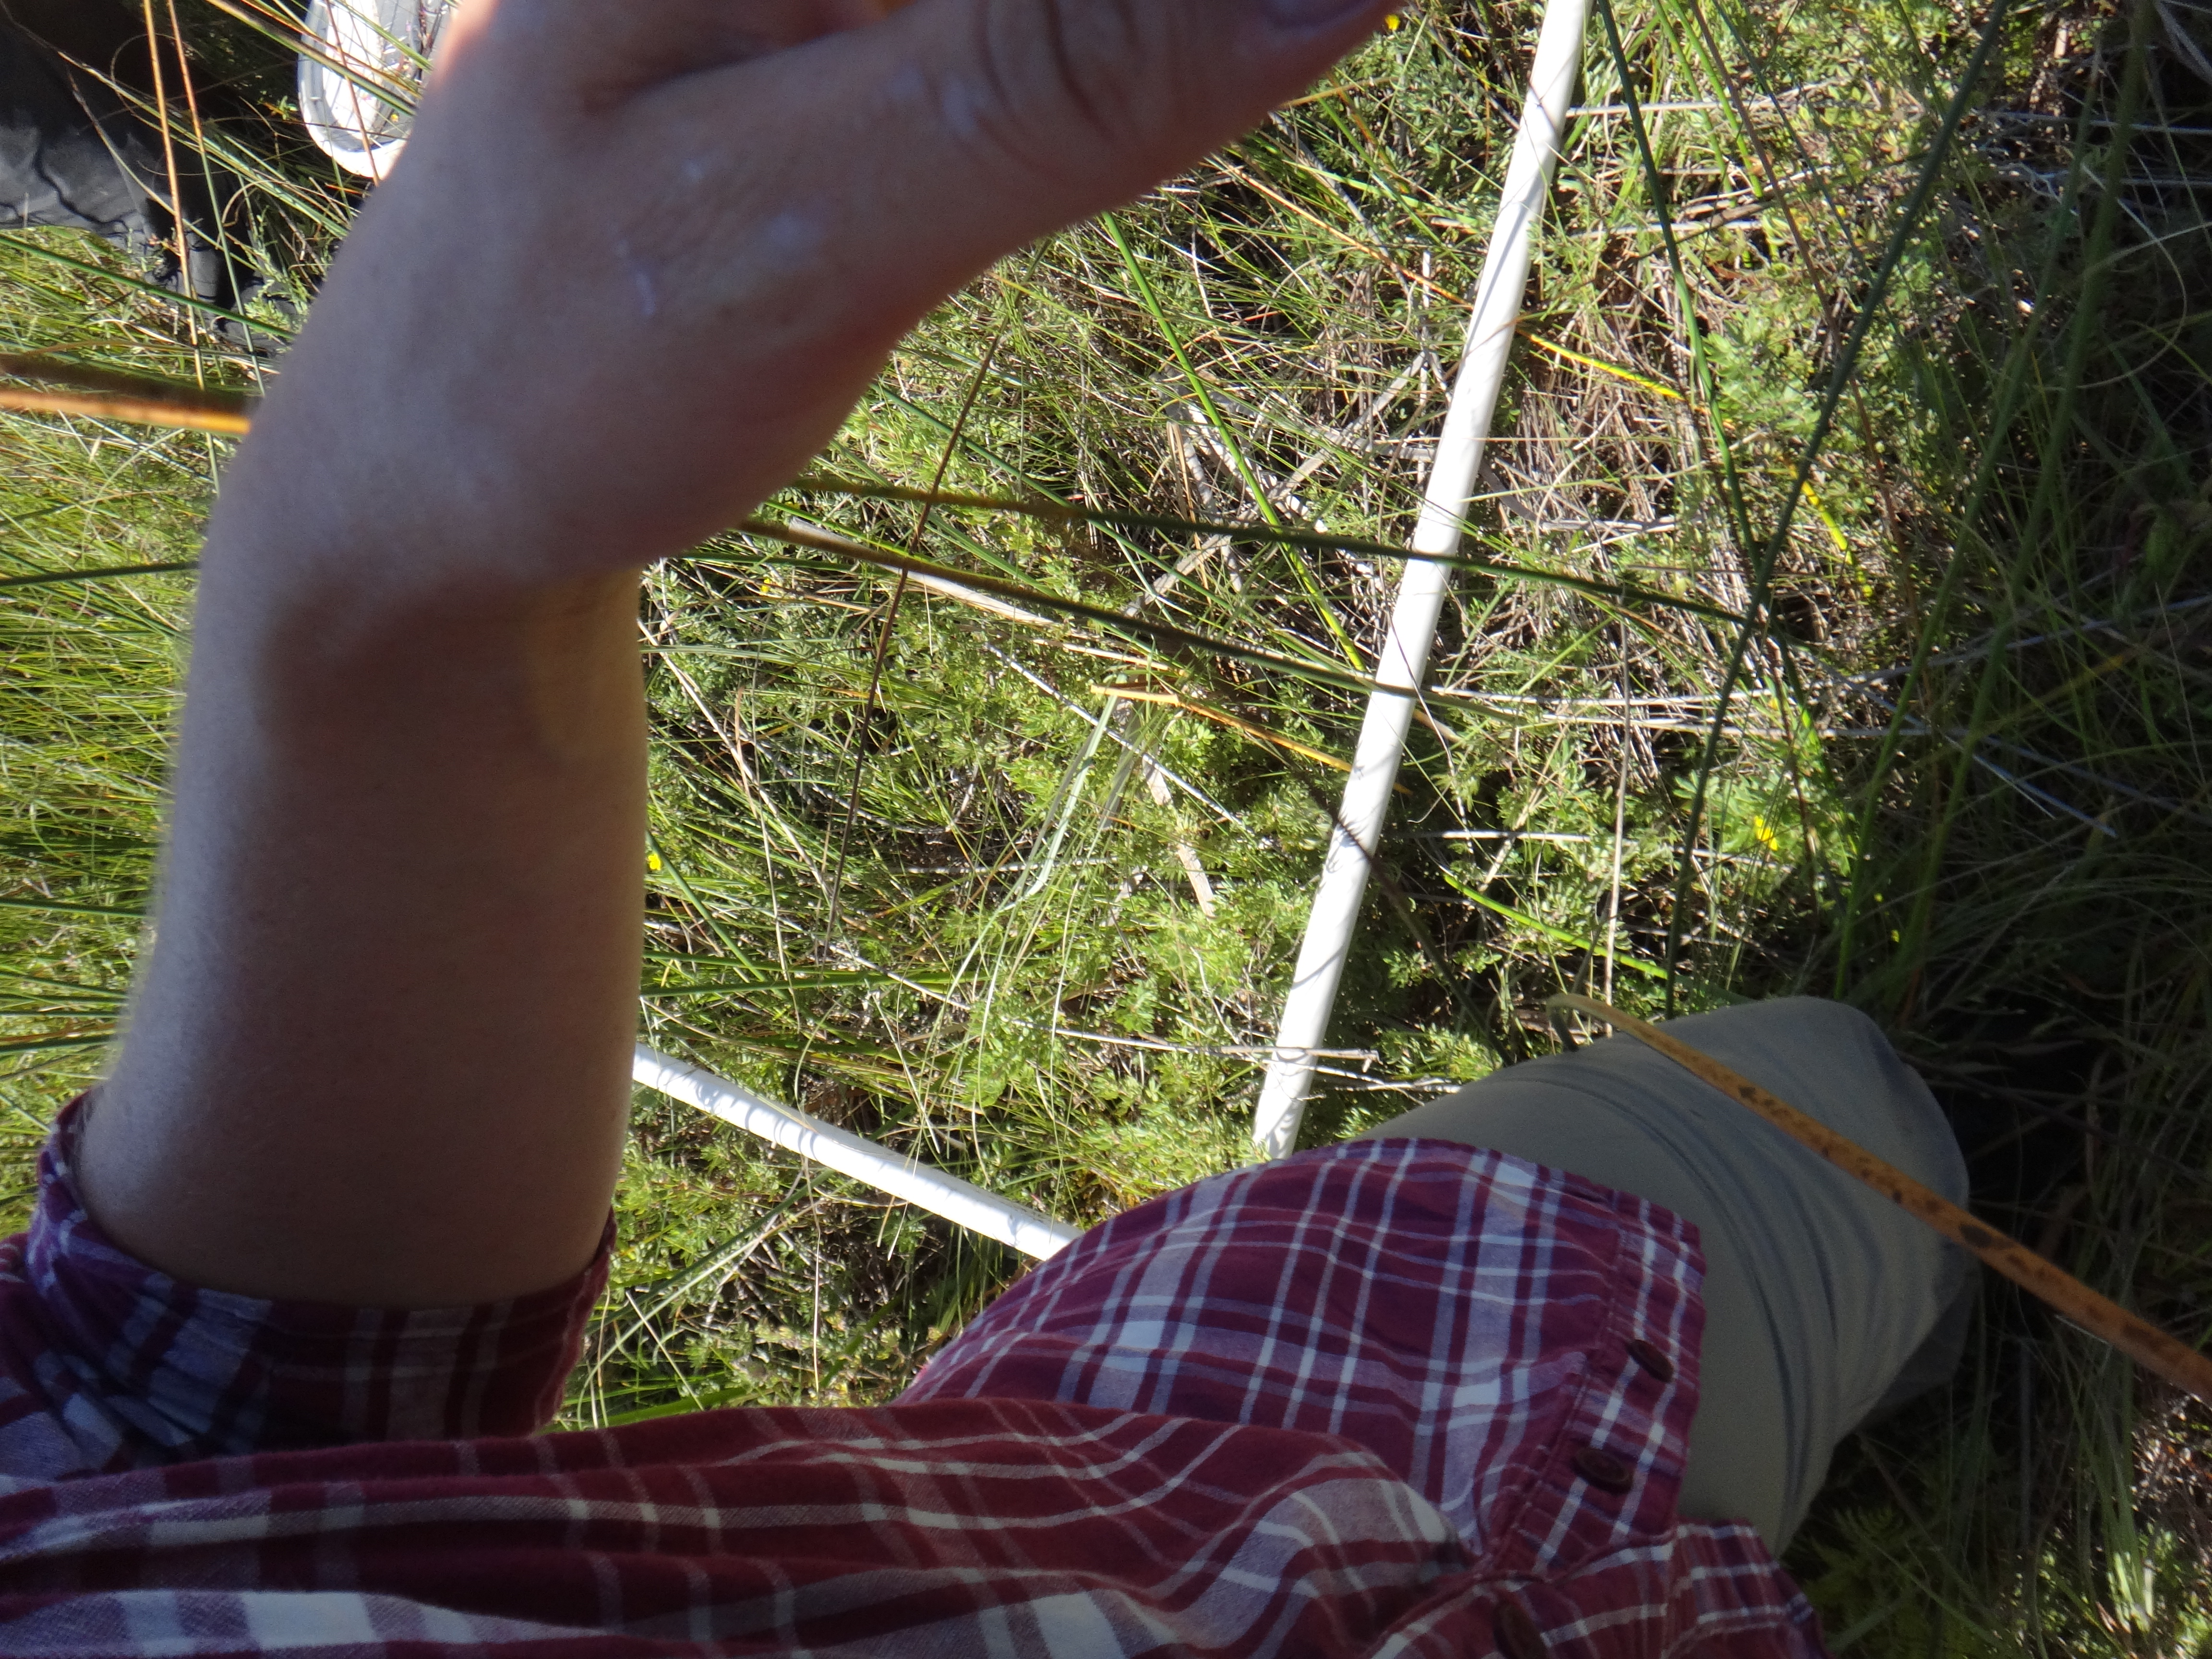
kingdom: Plantae
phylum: Tracheophyta
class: Polypodiopsida
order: Polypodiales
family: Thelypteridaceae
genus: Thelypteris
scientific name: Thelypteris palustris
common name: Marsh fern
